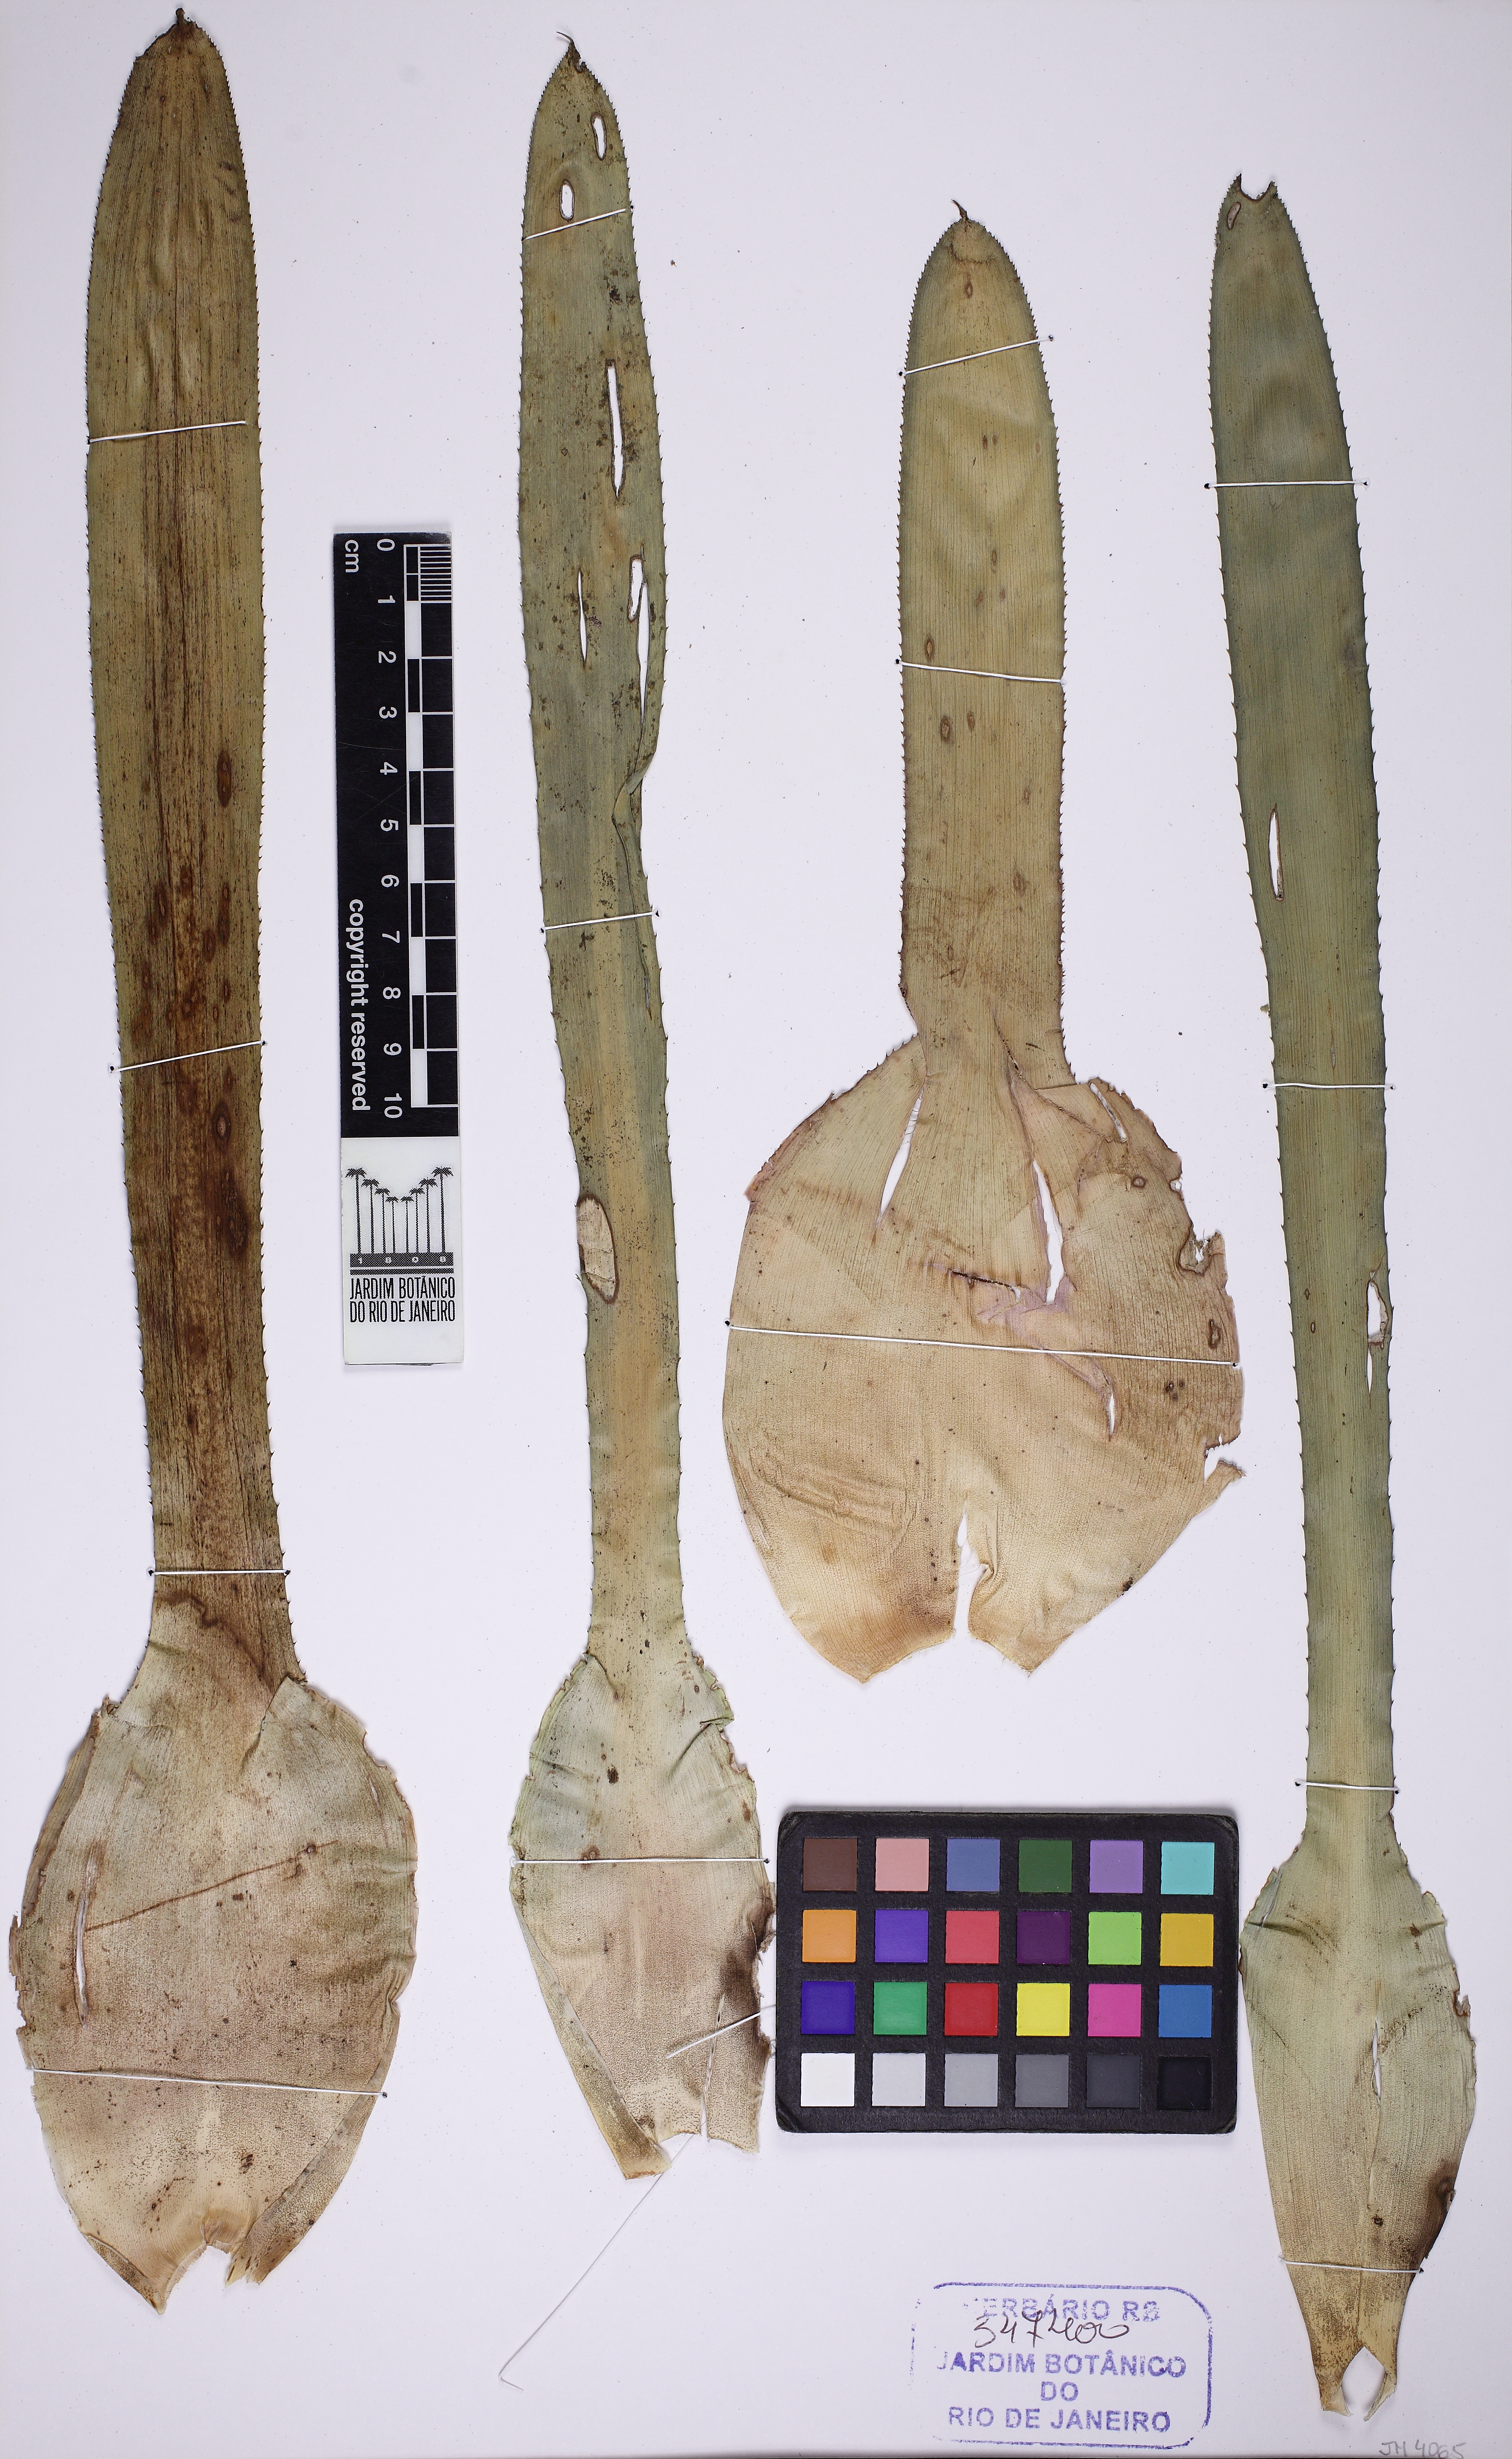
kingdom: Plantae
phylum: Tracheophyta
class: Liliopsida
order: Poales
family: Bromeliaceae
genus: Neoregelia
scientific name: Neoregelia carolinae
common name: Blushing bromeliad
